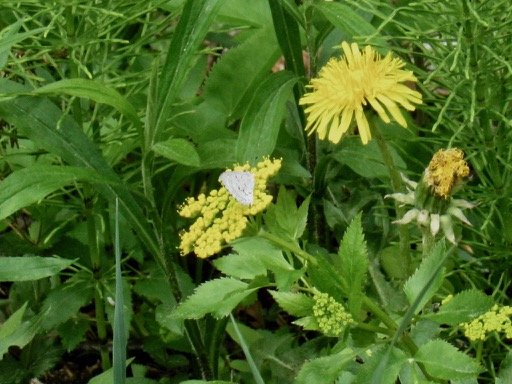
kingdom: Animalia
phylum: Arthropoda
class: Insecta
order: Lepidoptera
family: Lycaenidae
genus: Celastrina
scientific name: Celastrina lucia
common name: Northern Spring Azure
